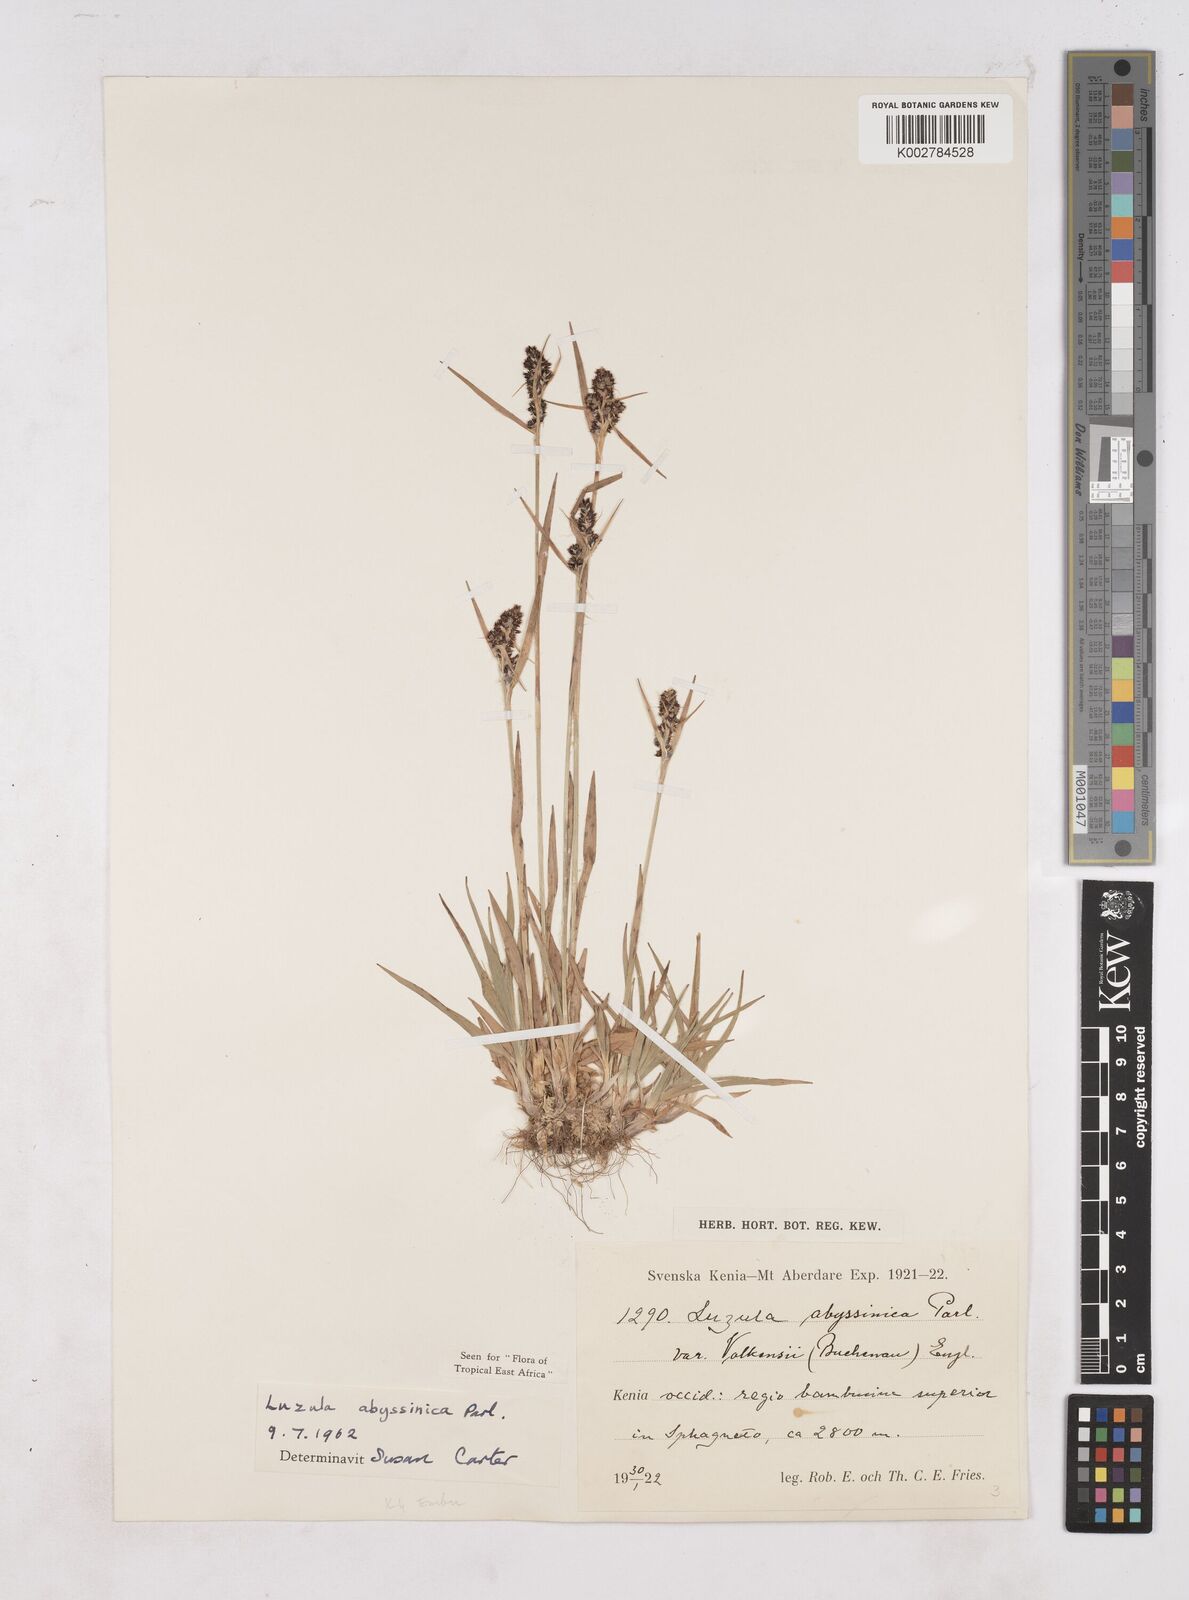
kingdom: Plantae
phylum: Tracheophyta
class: Liliopsida
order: Poales
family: Juncaceae
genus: Luzula
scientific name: Luzula abyssinica
